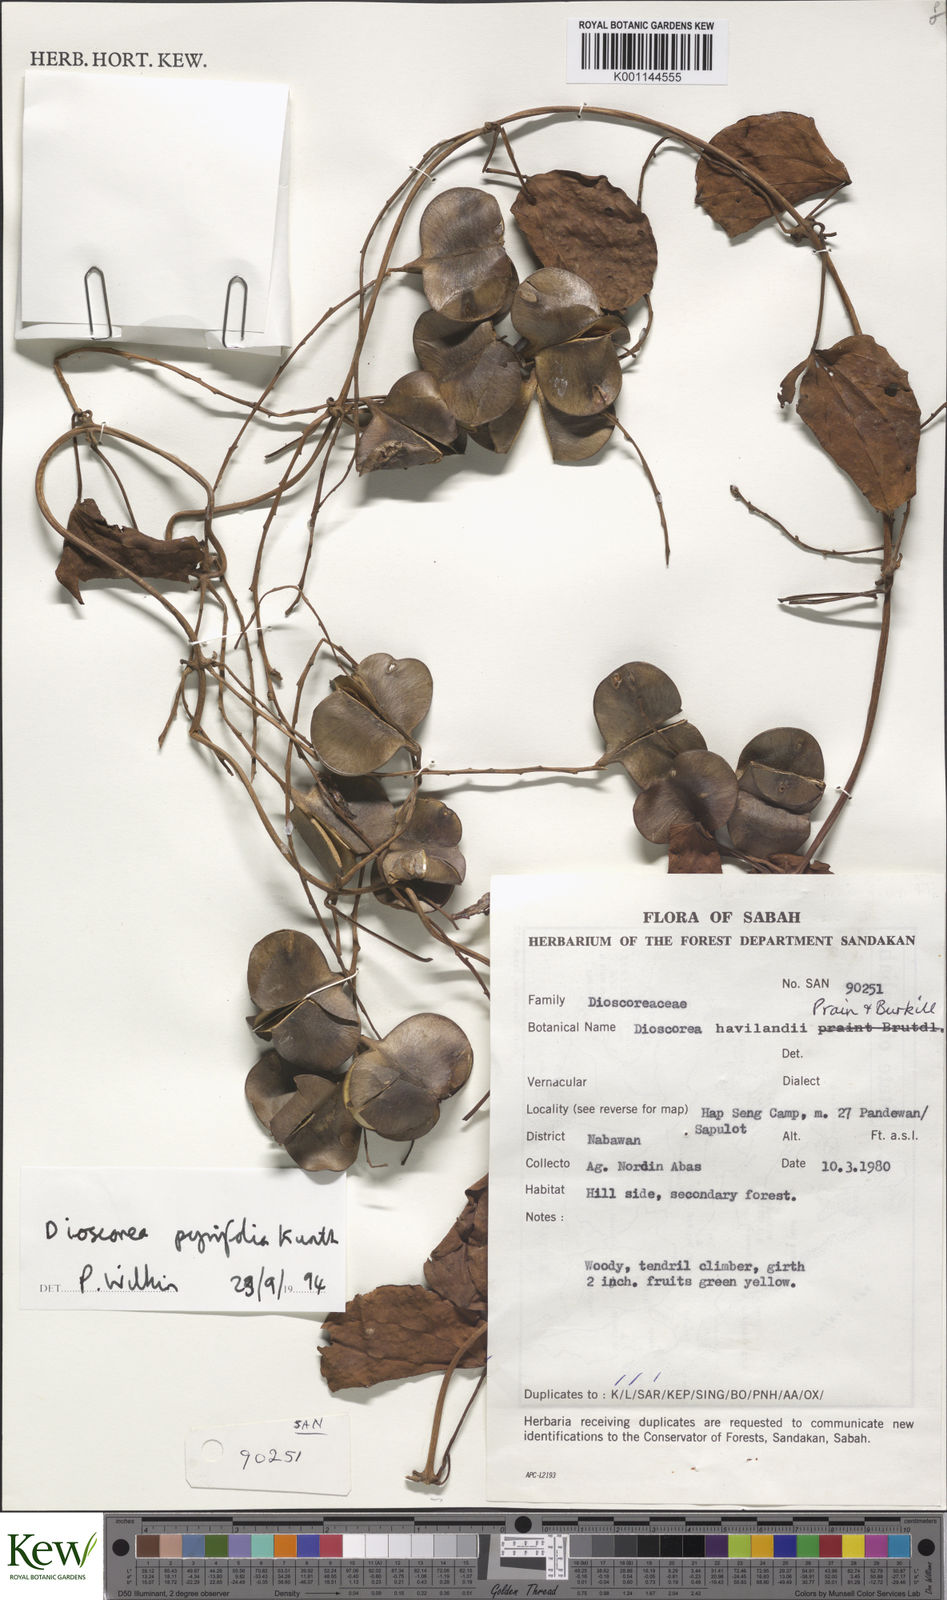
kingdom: Plantae
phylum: Tracheophyta
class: Liliopsida
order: Dioscoreales
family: Dioscoreaceae
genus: Dioscorea
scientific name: Dioscorea pyrifolia
